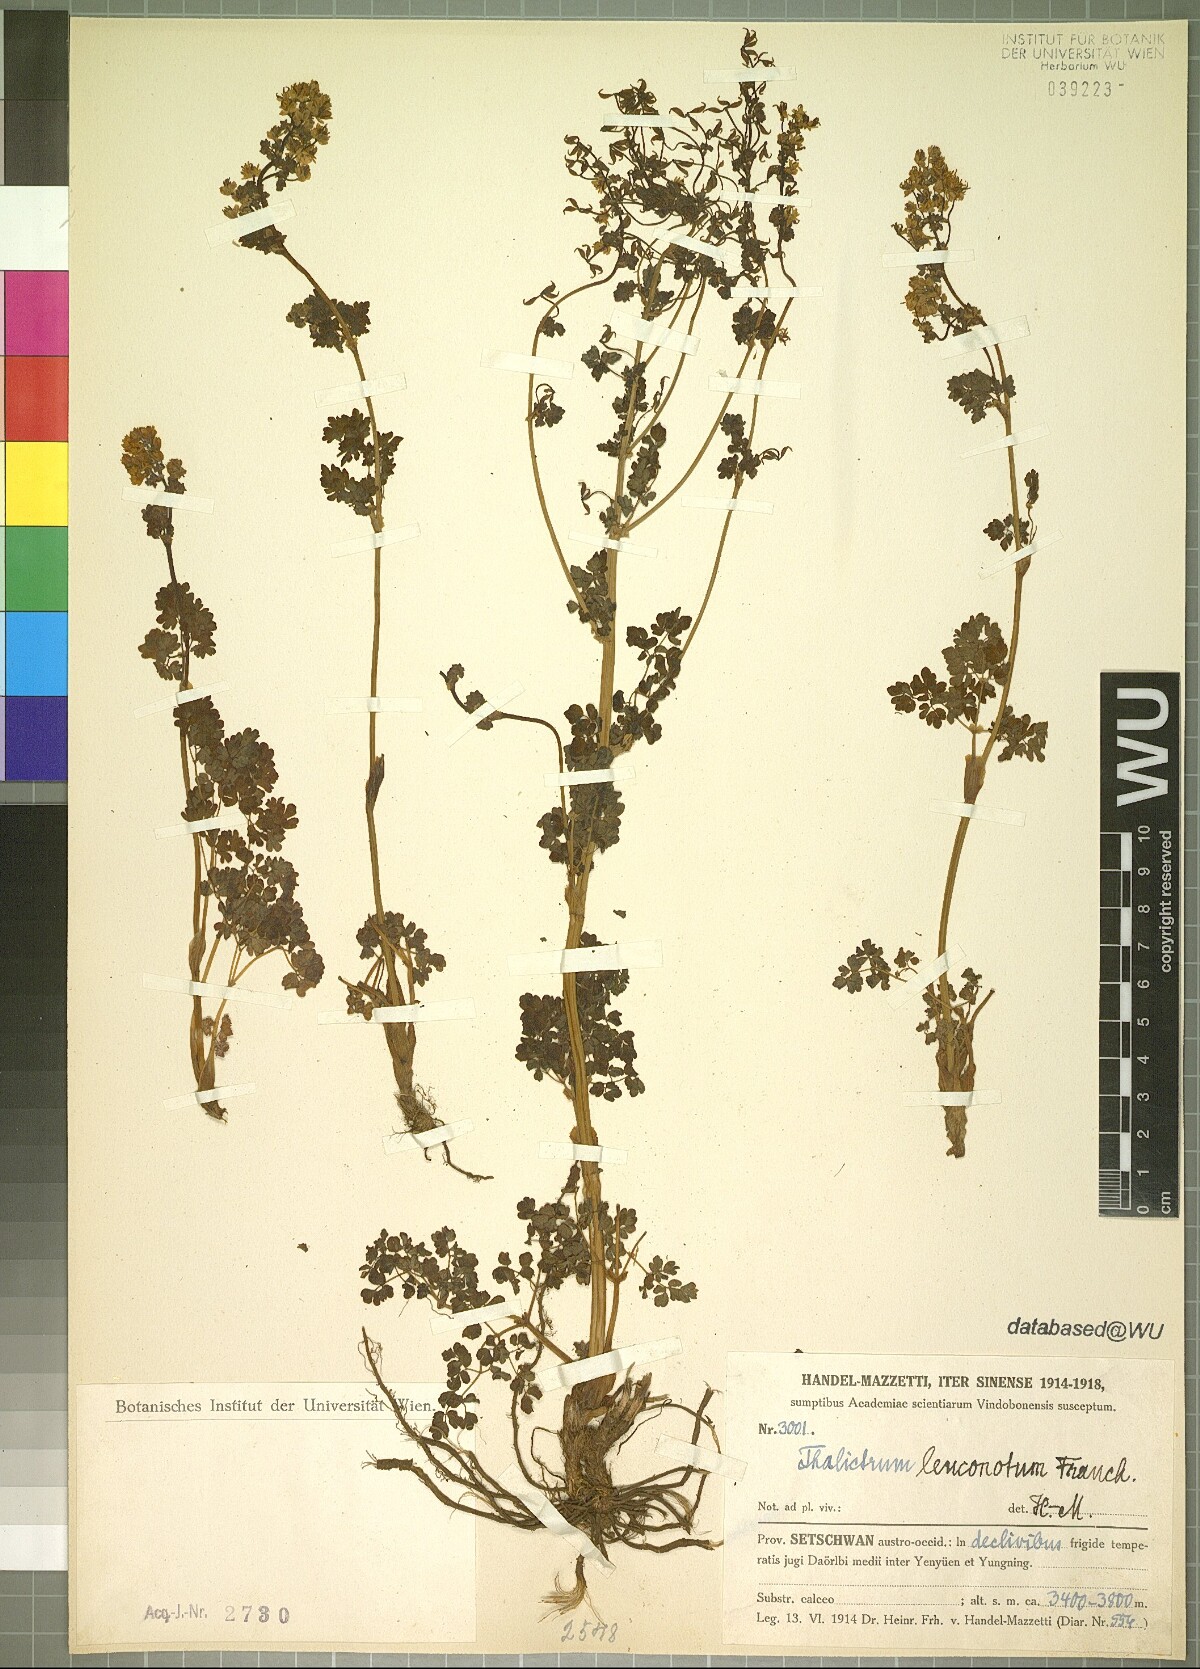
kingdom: Plantae
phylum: Tracheophyta
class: Magnoliopsida
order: Ranunculales
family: Ranunculaceae
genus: Thalictrum
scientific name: Thalictrum leuconotum
